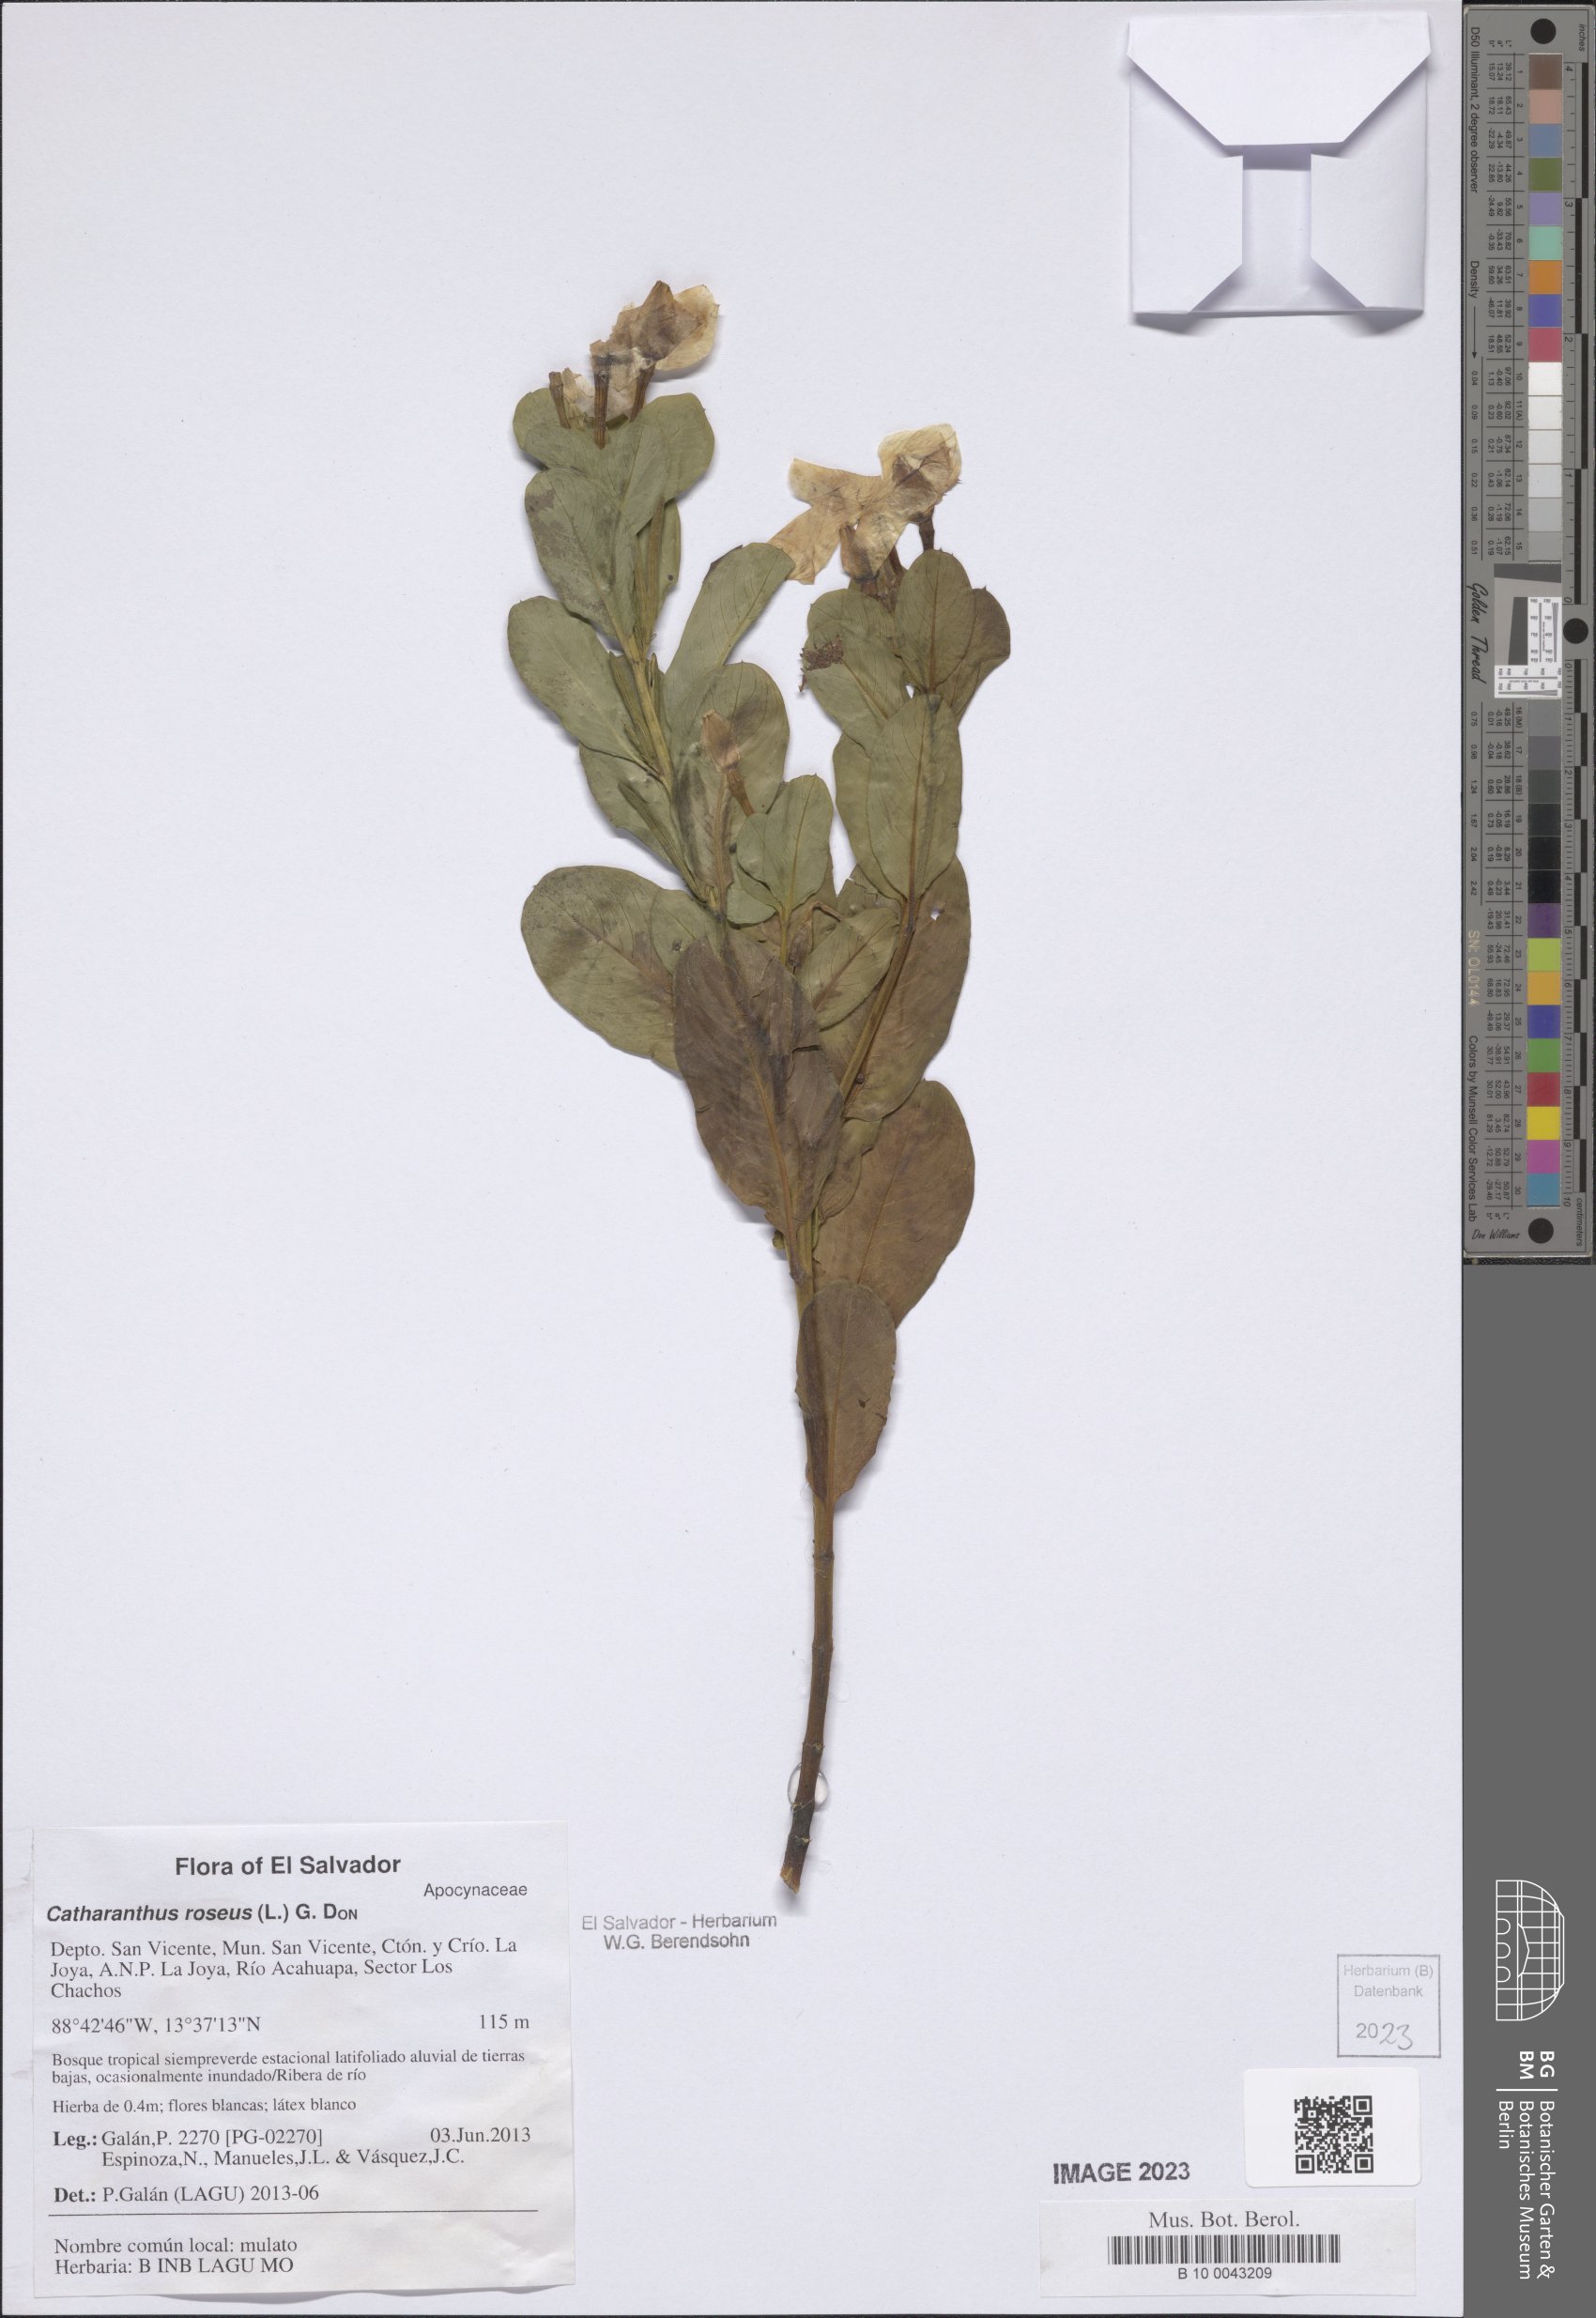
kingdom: Plantae
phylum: Tracheophyta
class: Magnoliopsida
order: Gentianales
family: Apocynaceae
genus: Catharanthus
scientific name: Catharanthus roseus
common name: Madagascar periwinkle
